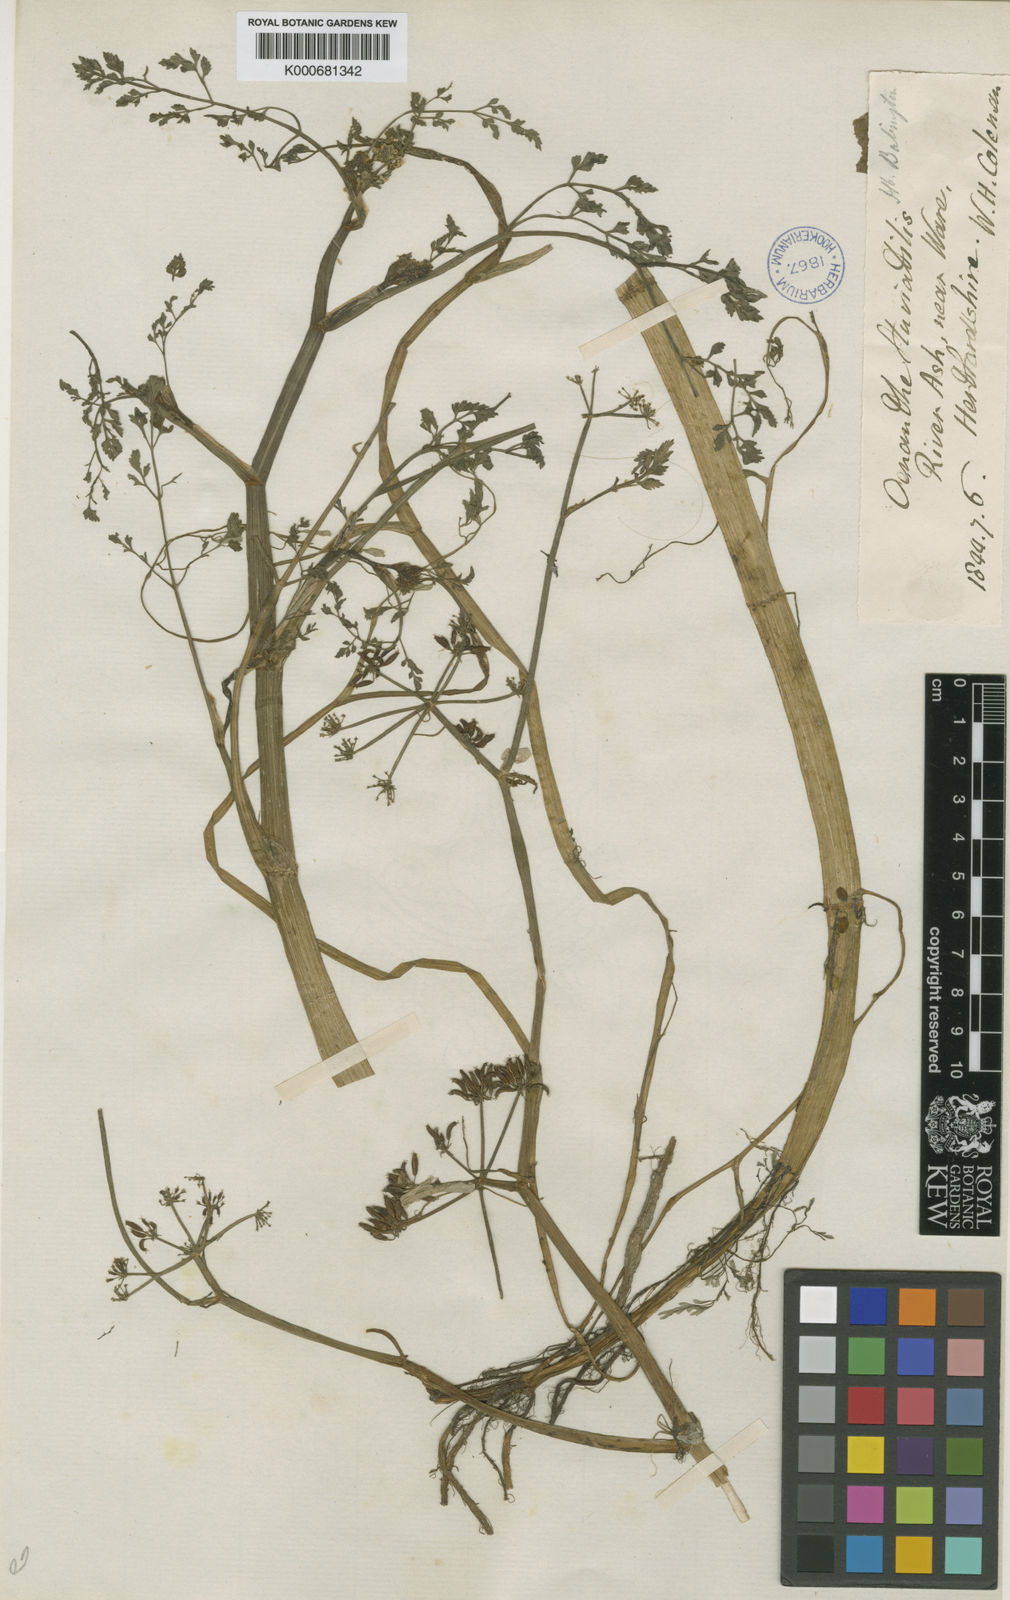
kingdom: Plantae
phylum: Tracheophyta
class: Magnoliopsida
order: Apiales
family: Apiaceae
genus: Oenanthe
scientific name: Oenanthe fluviatilis
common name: River water-dropwort
